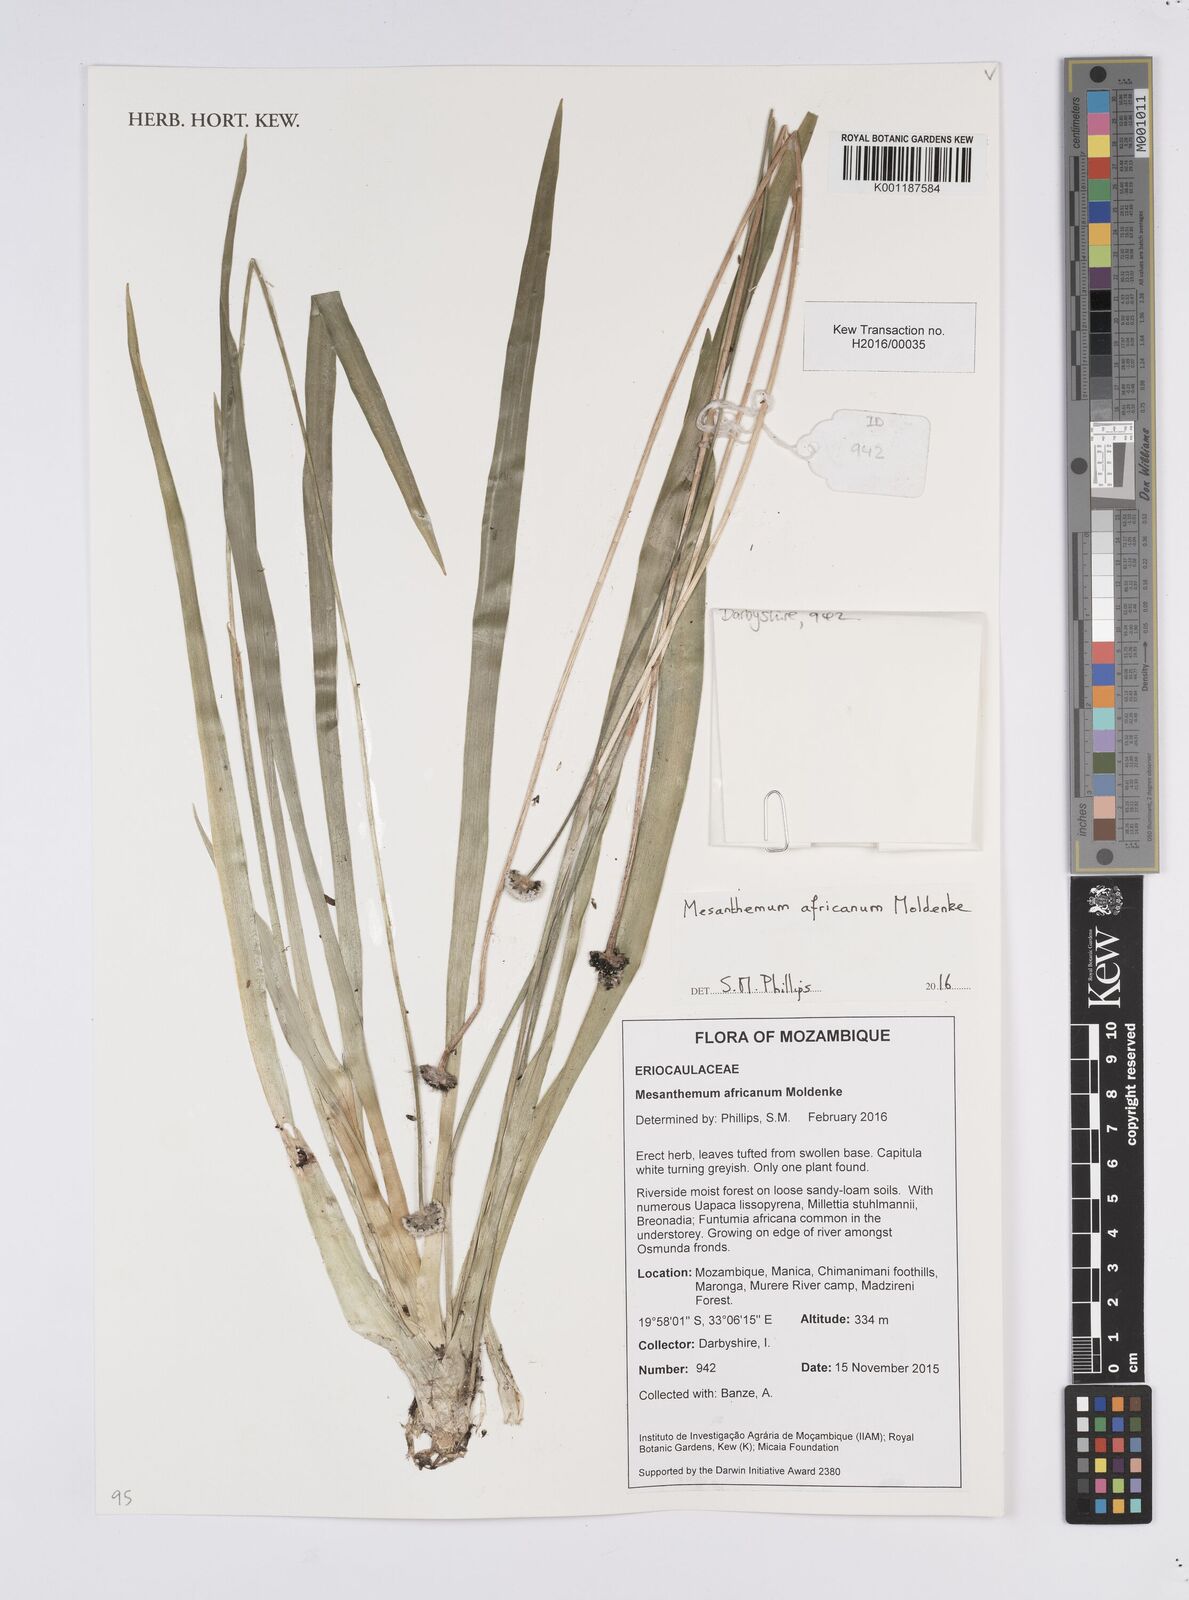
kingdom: Plantae
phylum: Tracheophyta
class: Liliopsida
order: Poales
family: Eriocaulaceae
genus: Mesanthemum
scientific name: Mesanthemum africanum
